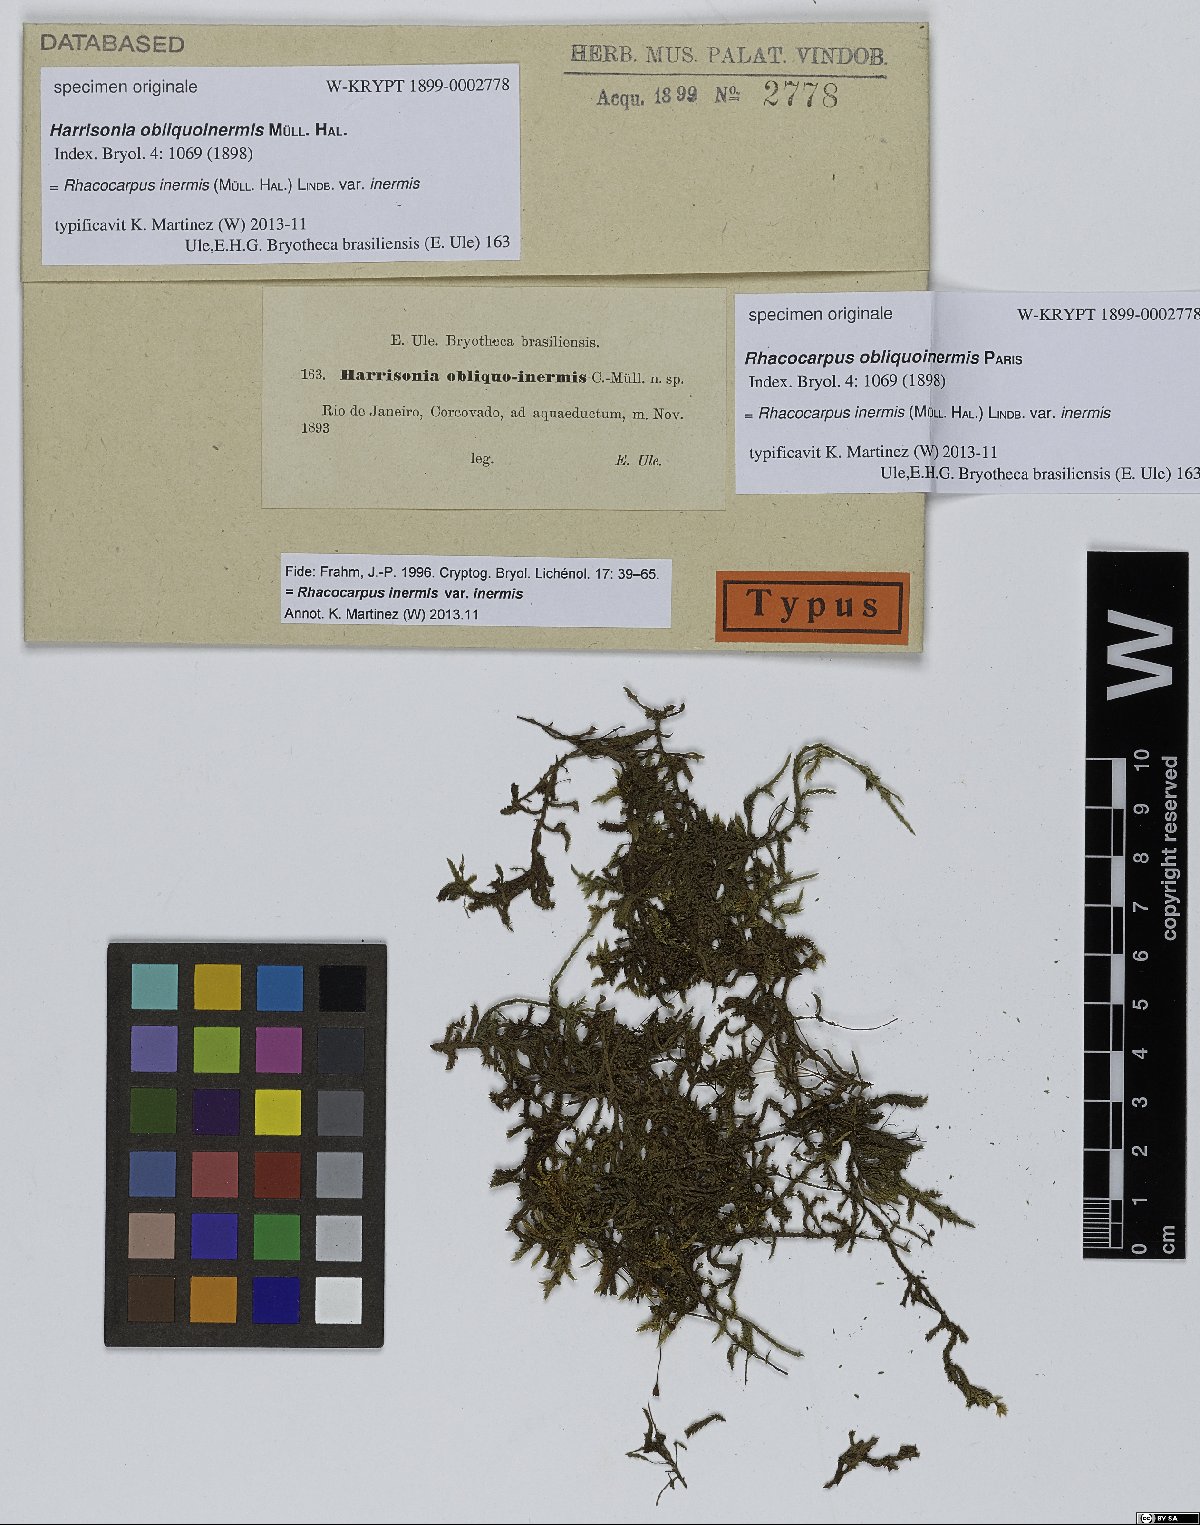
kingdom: Plantae
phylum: Tracheophyta
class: Magnoliopsida
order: Sapindales
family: Rutaceae
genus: Harrisonia
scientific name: Harrisonia
